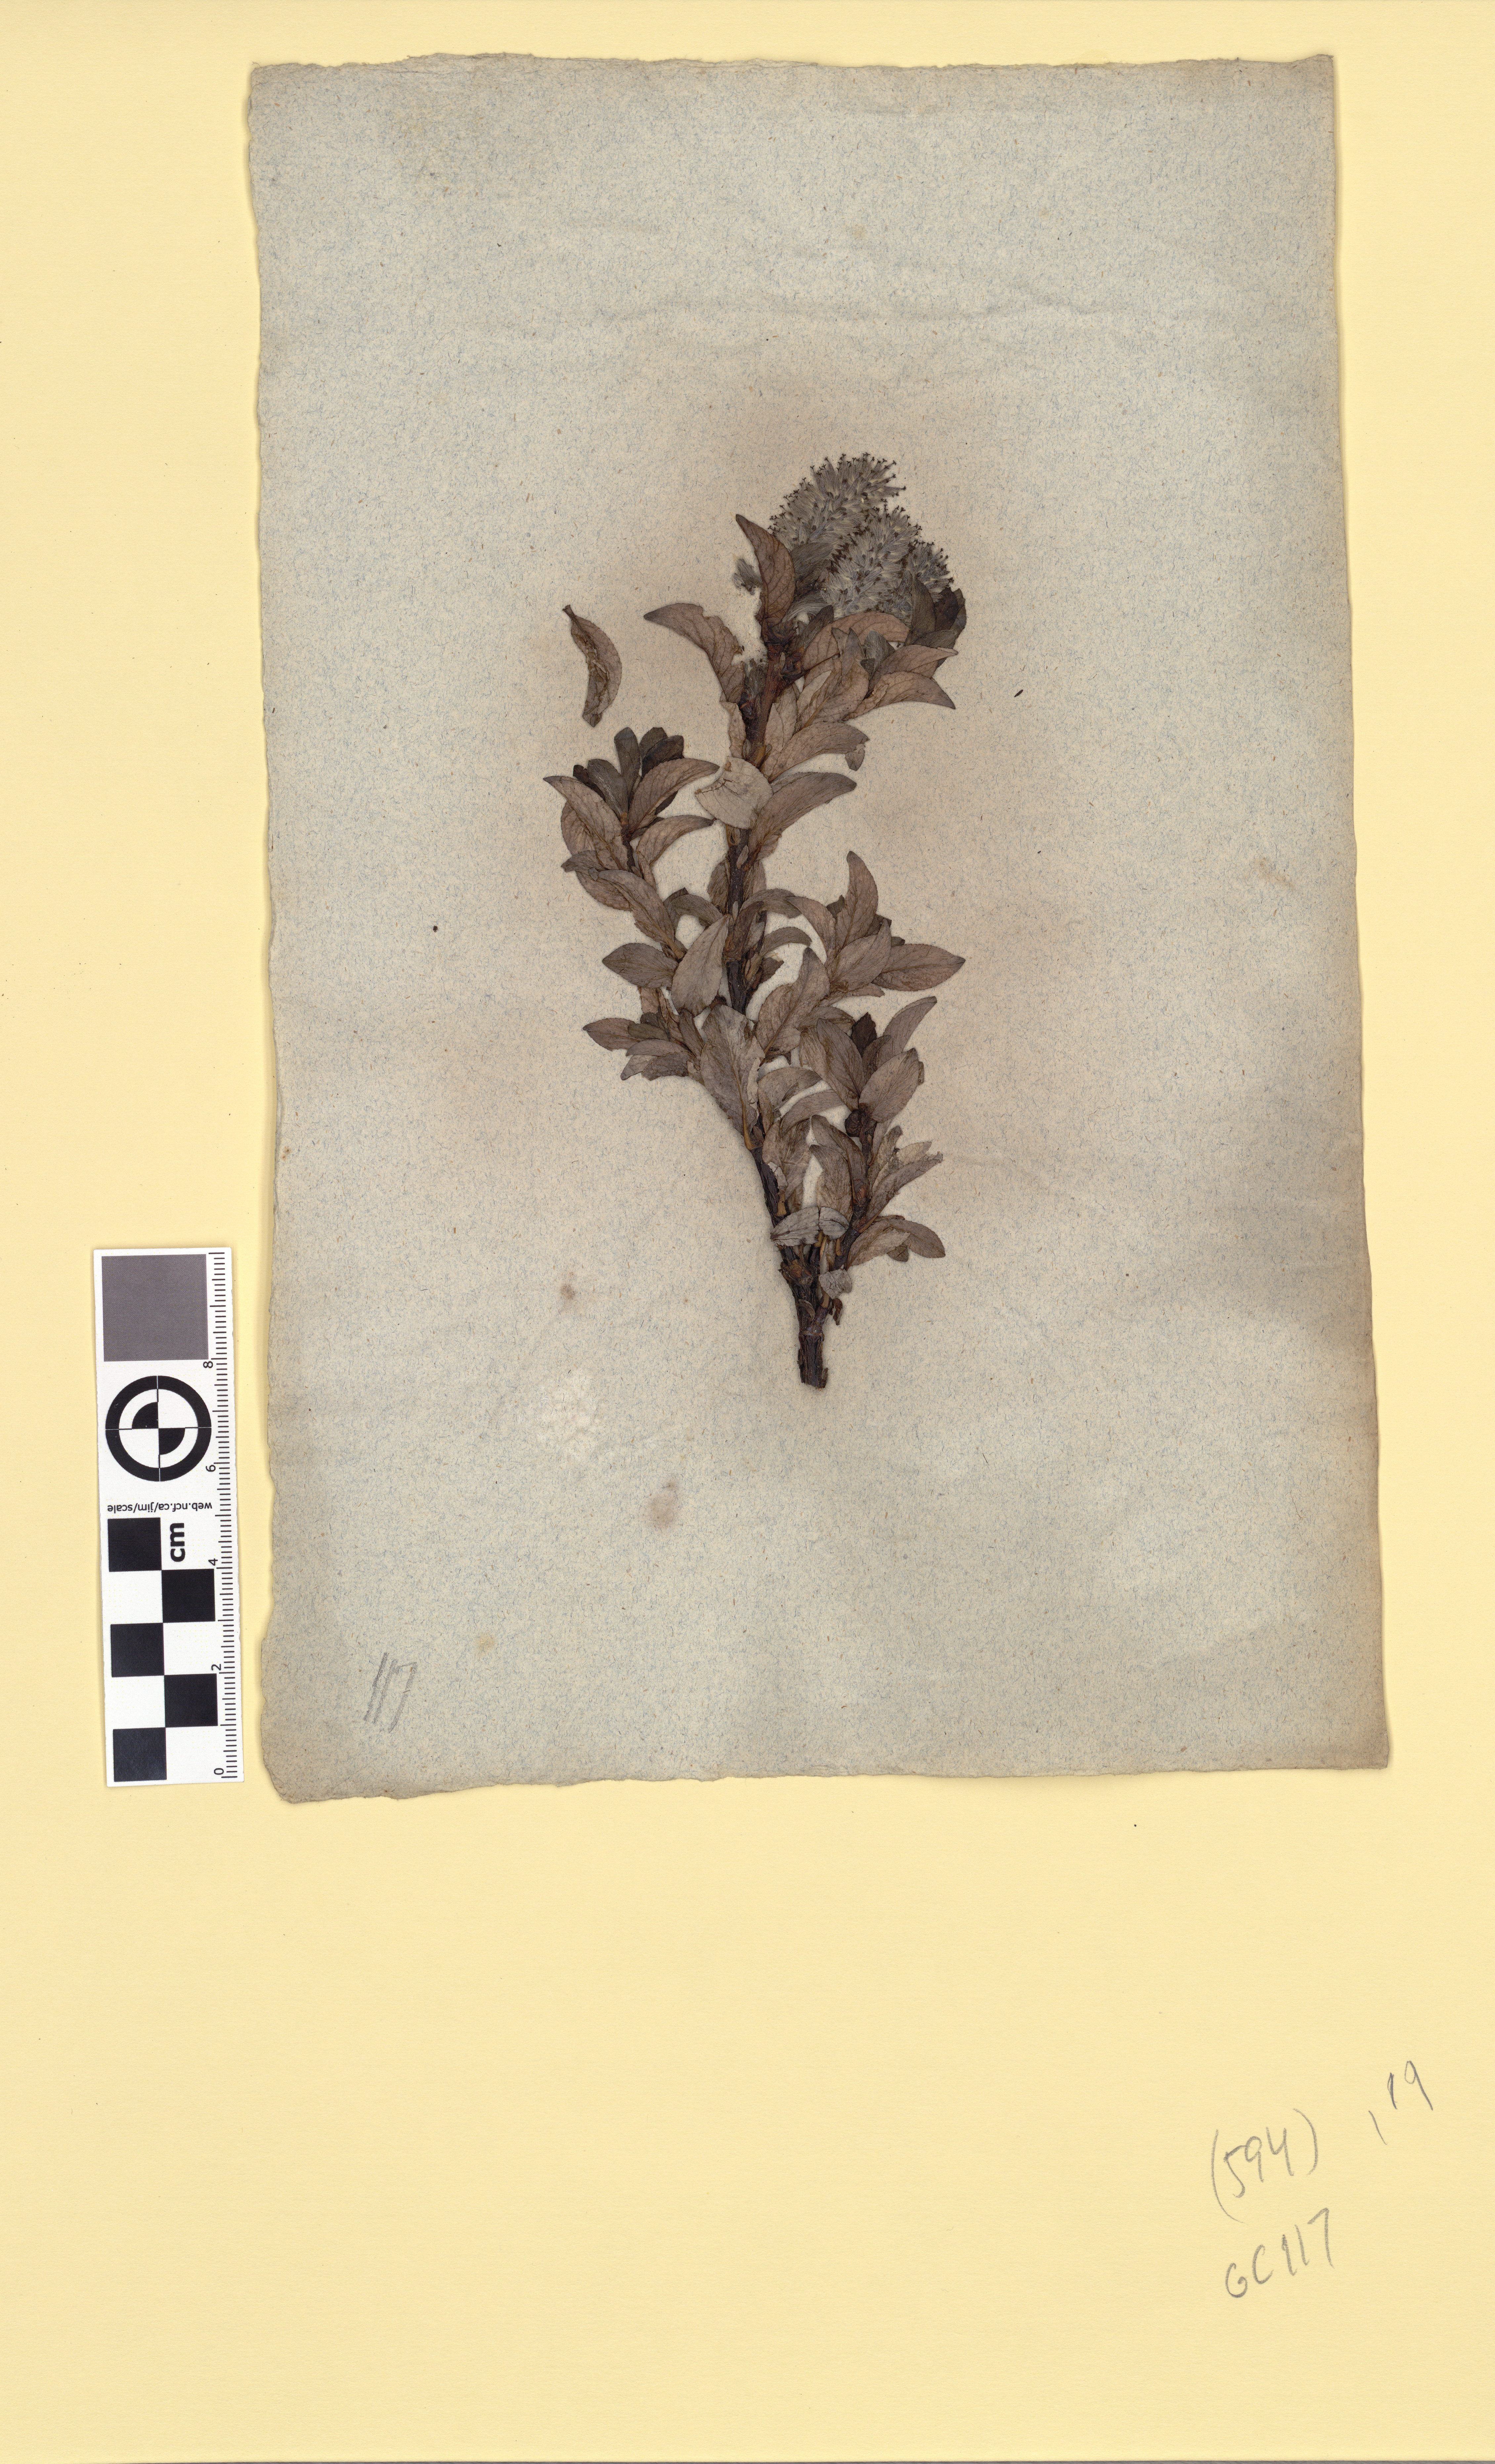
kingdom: Plantae
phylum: Tracheophyta
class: Magnoliopsida
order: Malpighiales
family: Salicaceae
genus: Salix
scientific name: Salix myrsinites
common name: Myrtle willow
